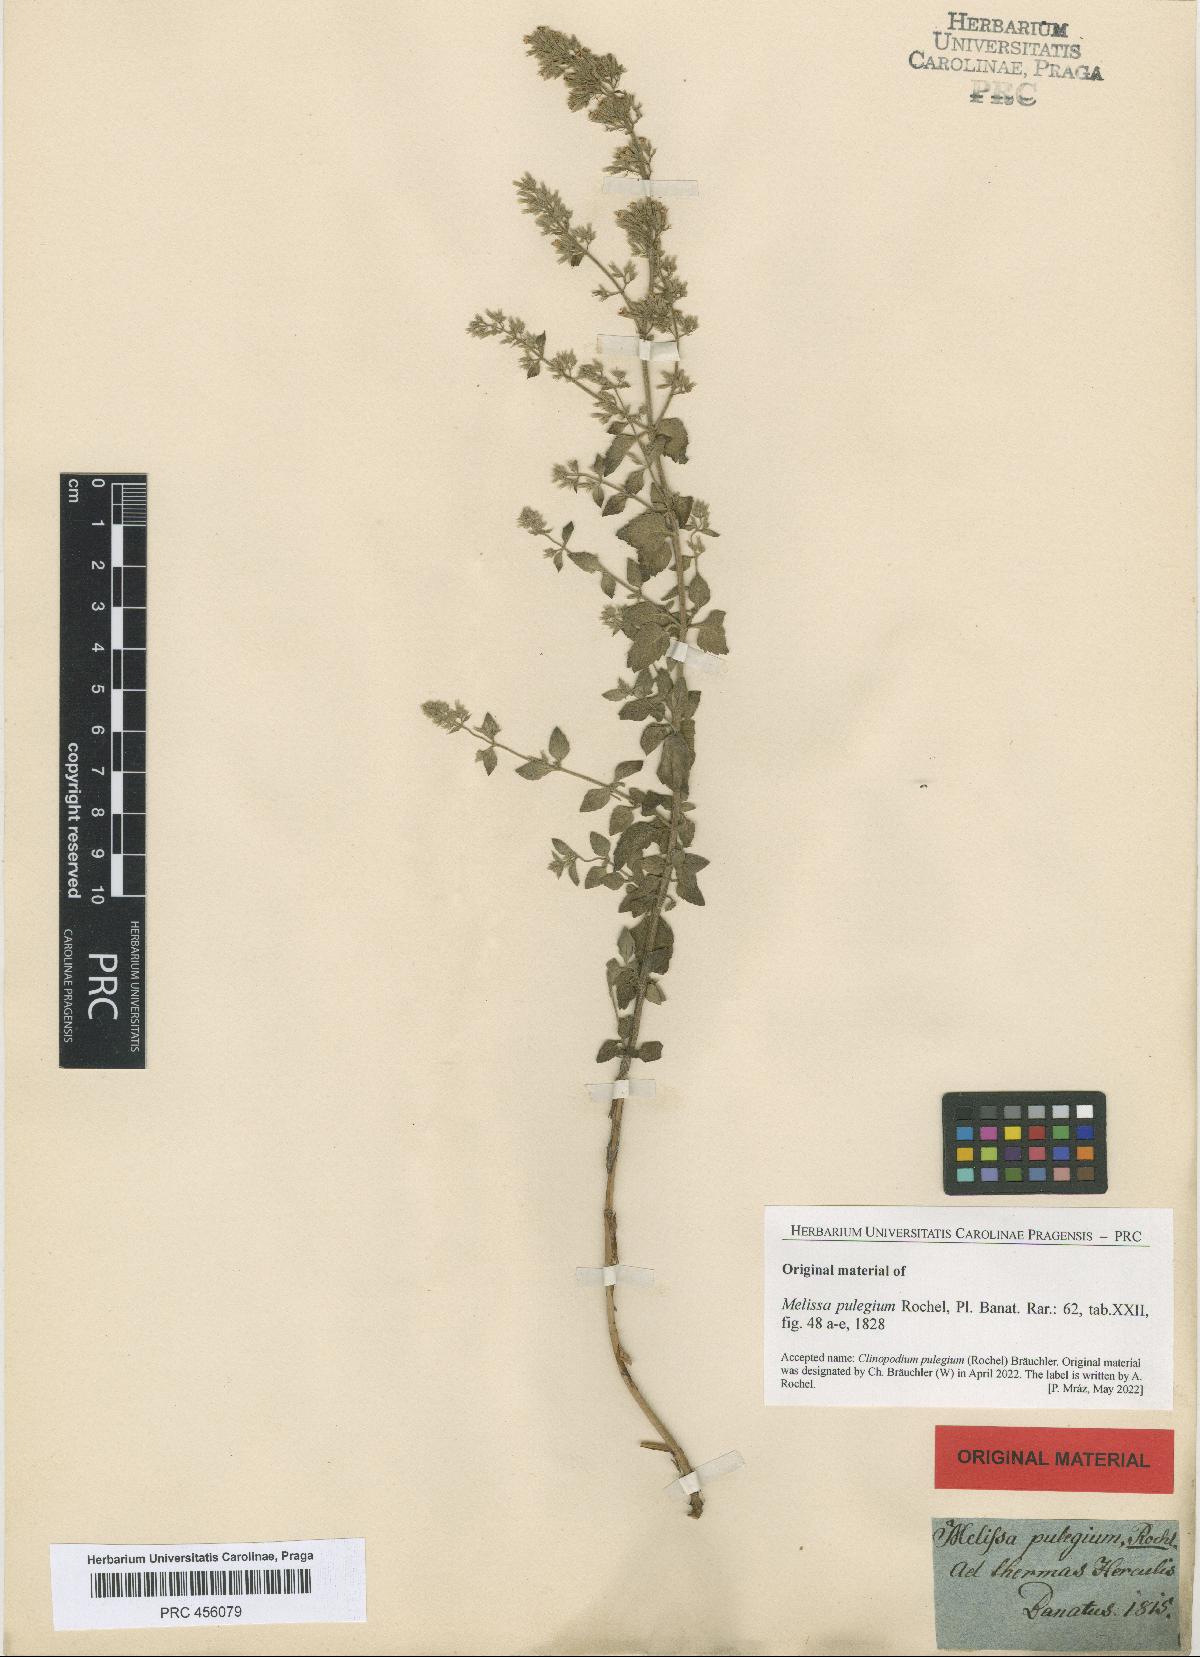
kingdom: Plantae
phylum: Tracheophyta
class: Magnoliopsida
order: Lamiales
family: Lamiaceae
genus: Clinopodium
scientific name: Clinopodium pulegium
